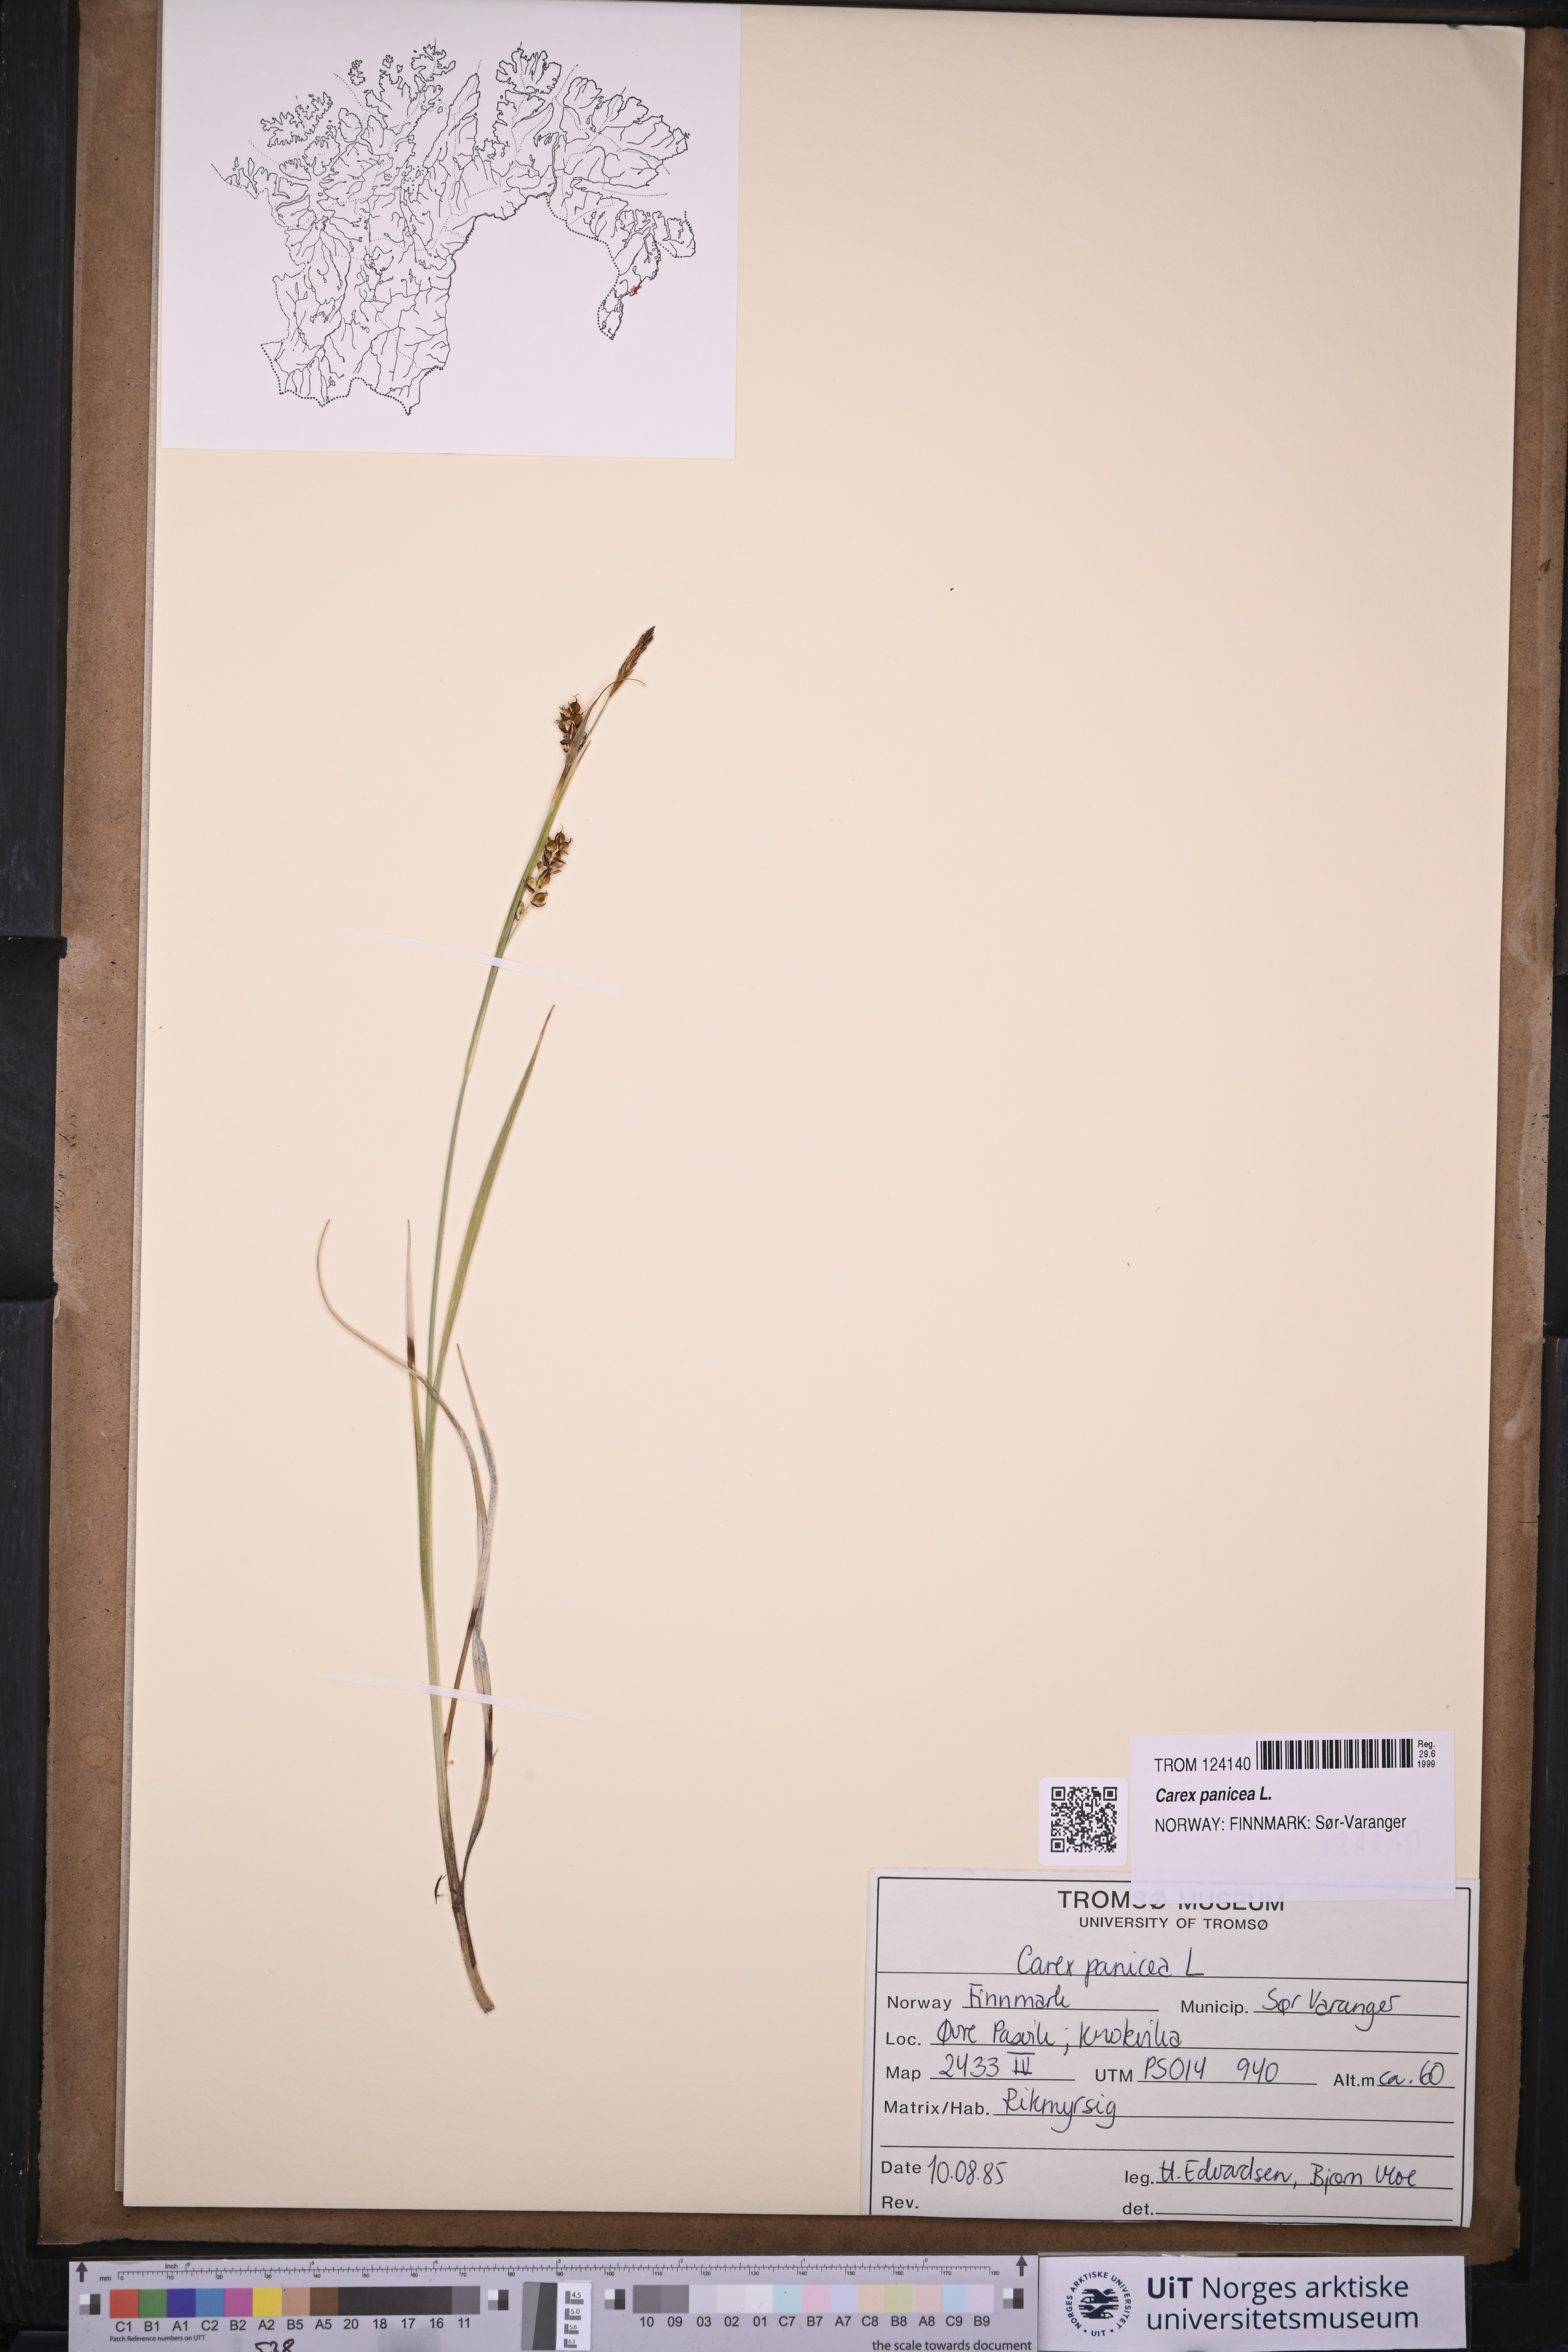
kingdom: Plantae
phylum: Tracheophyta
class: Liliopsida
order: Poales
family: Cyperaceae
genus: Carex
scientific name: Carex panicea
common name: Carnation sedge
